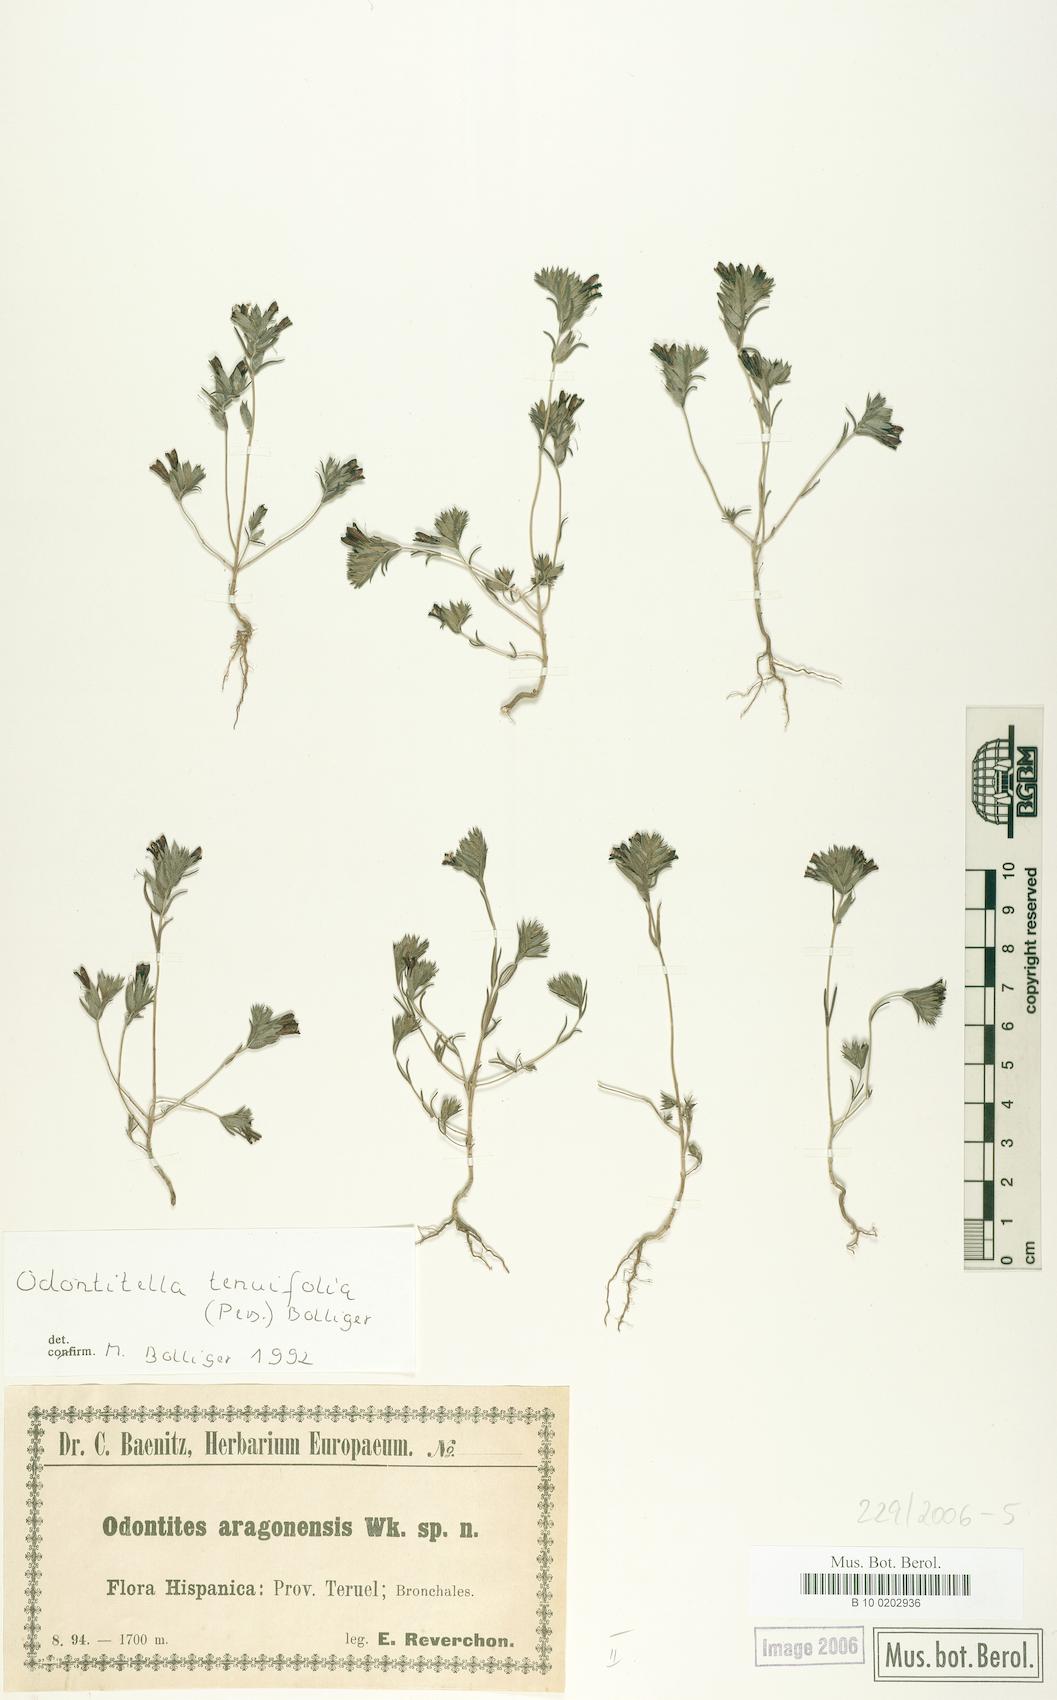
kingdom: Plantae
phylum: Tracheophyta
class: Magnoliopsida
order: Lamiales
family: Orobanchaceae
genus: Odontitella
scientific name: Odontitella virgata
